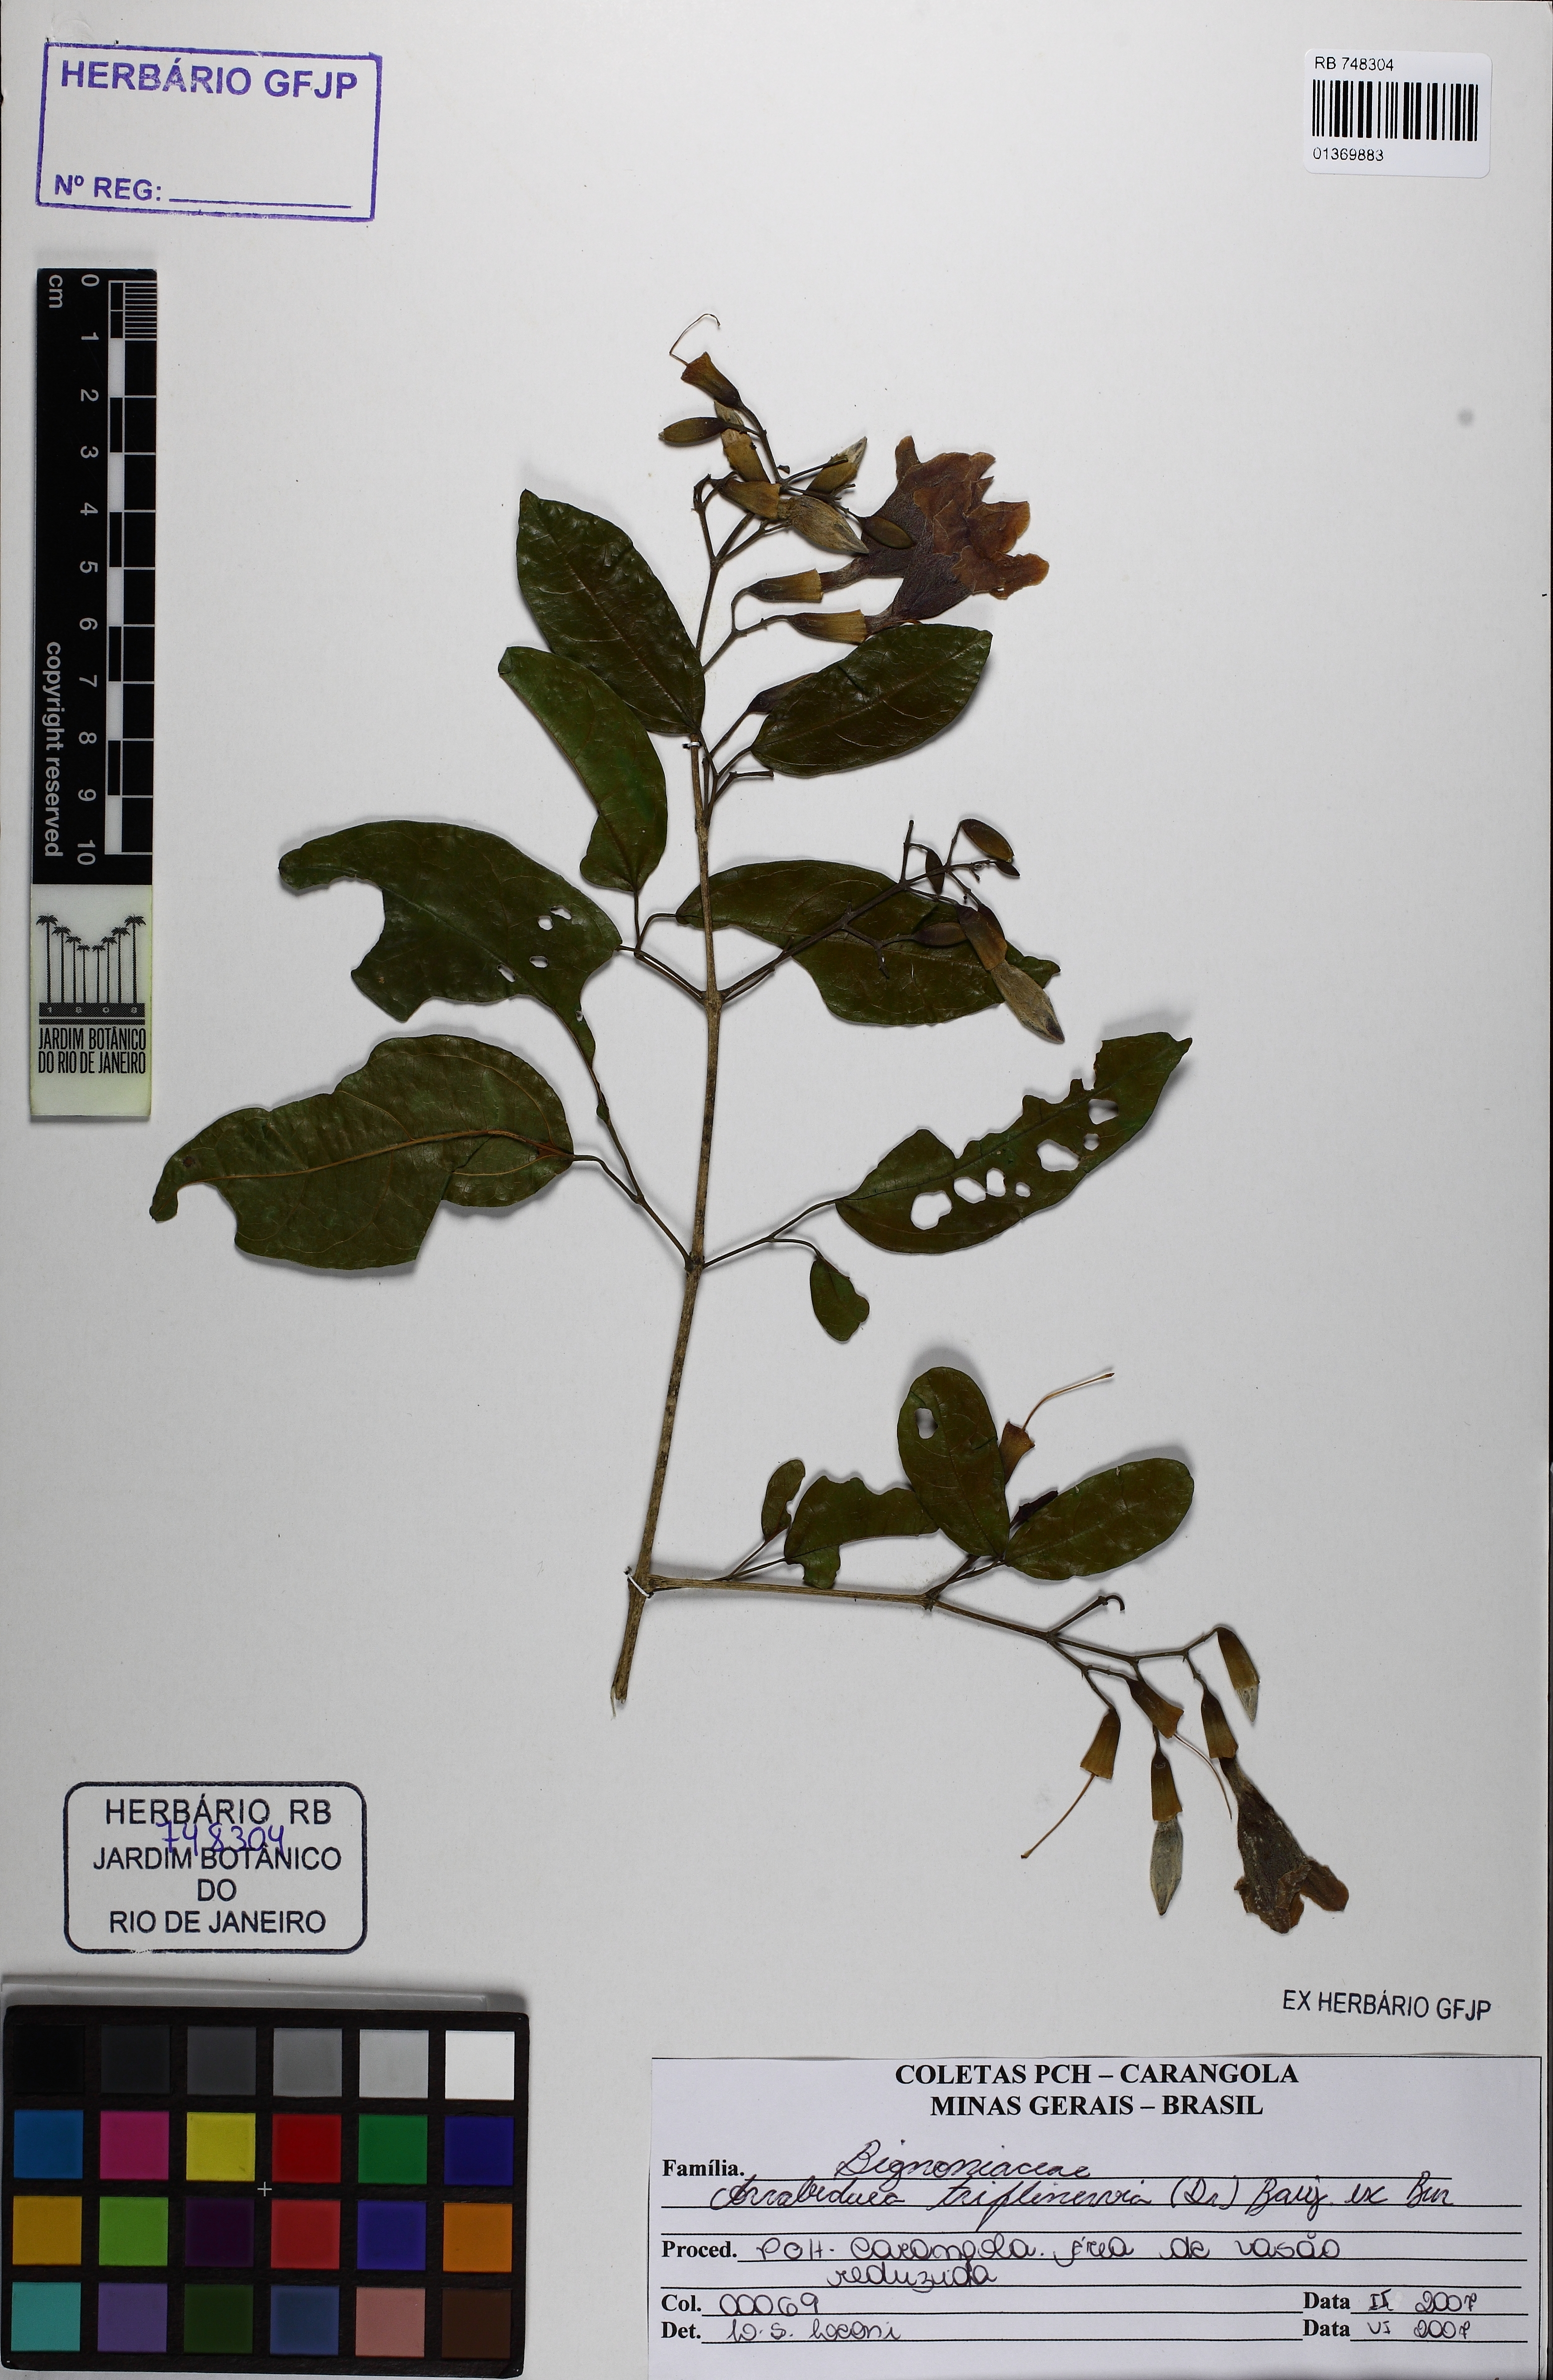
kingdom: Plantae
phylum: Tracheophyta
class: Magnoliopsida
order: Lamiales
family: Bignoniaceae
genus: Fridericia
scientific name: Fridericia triplinervia
